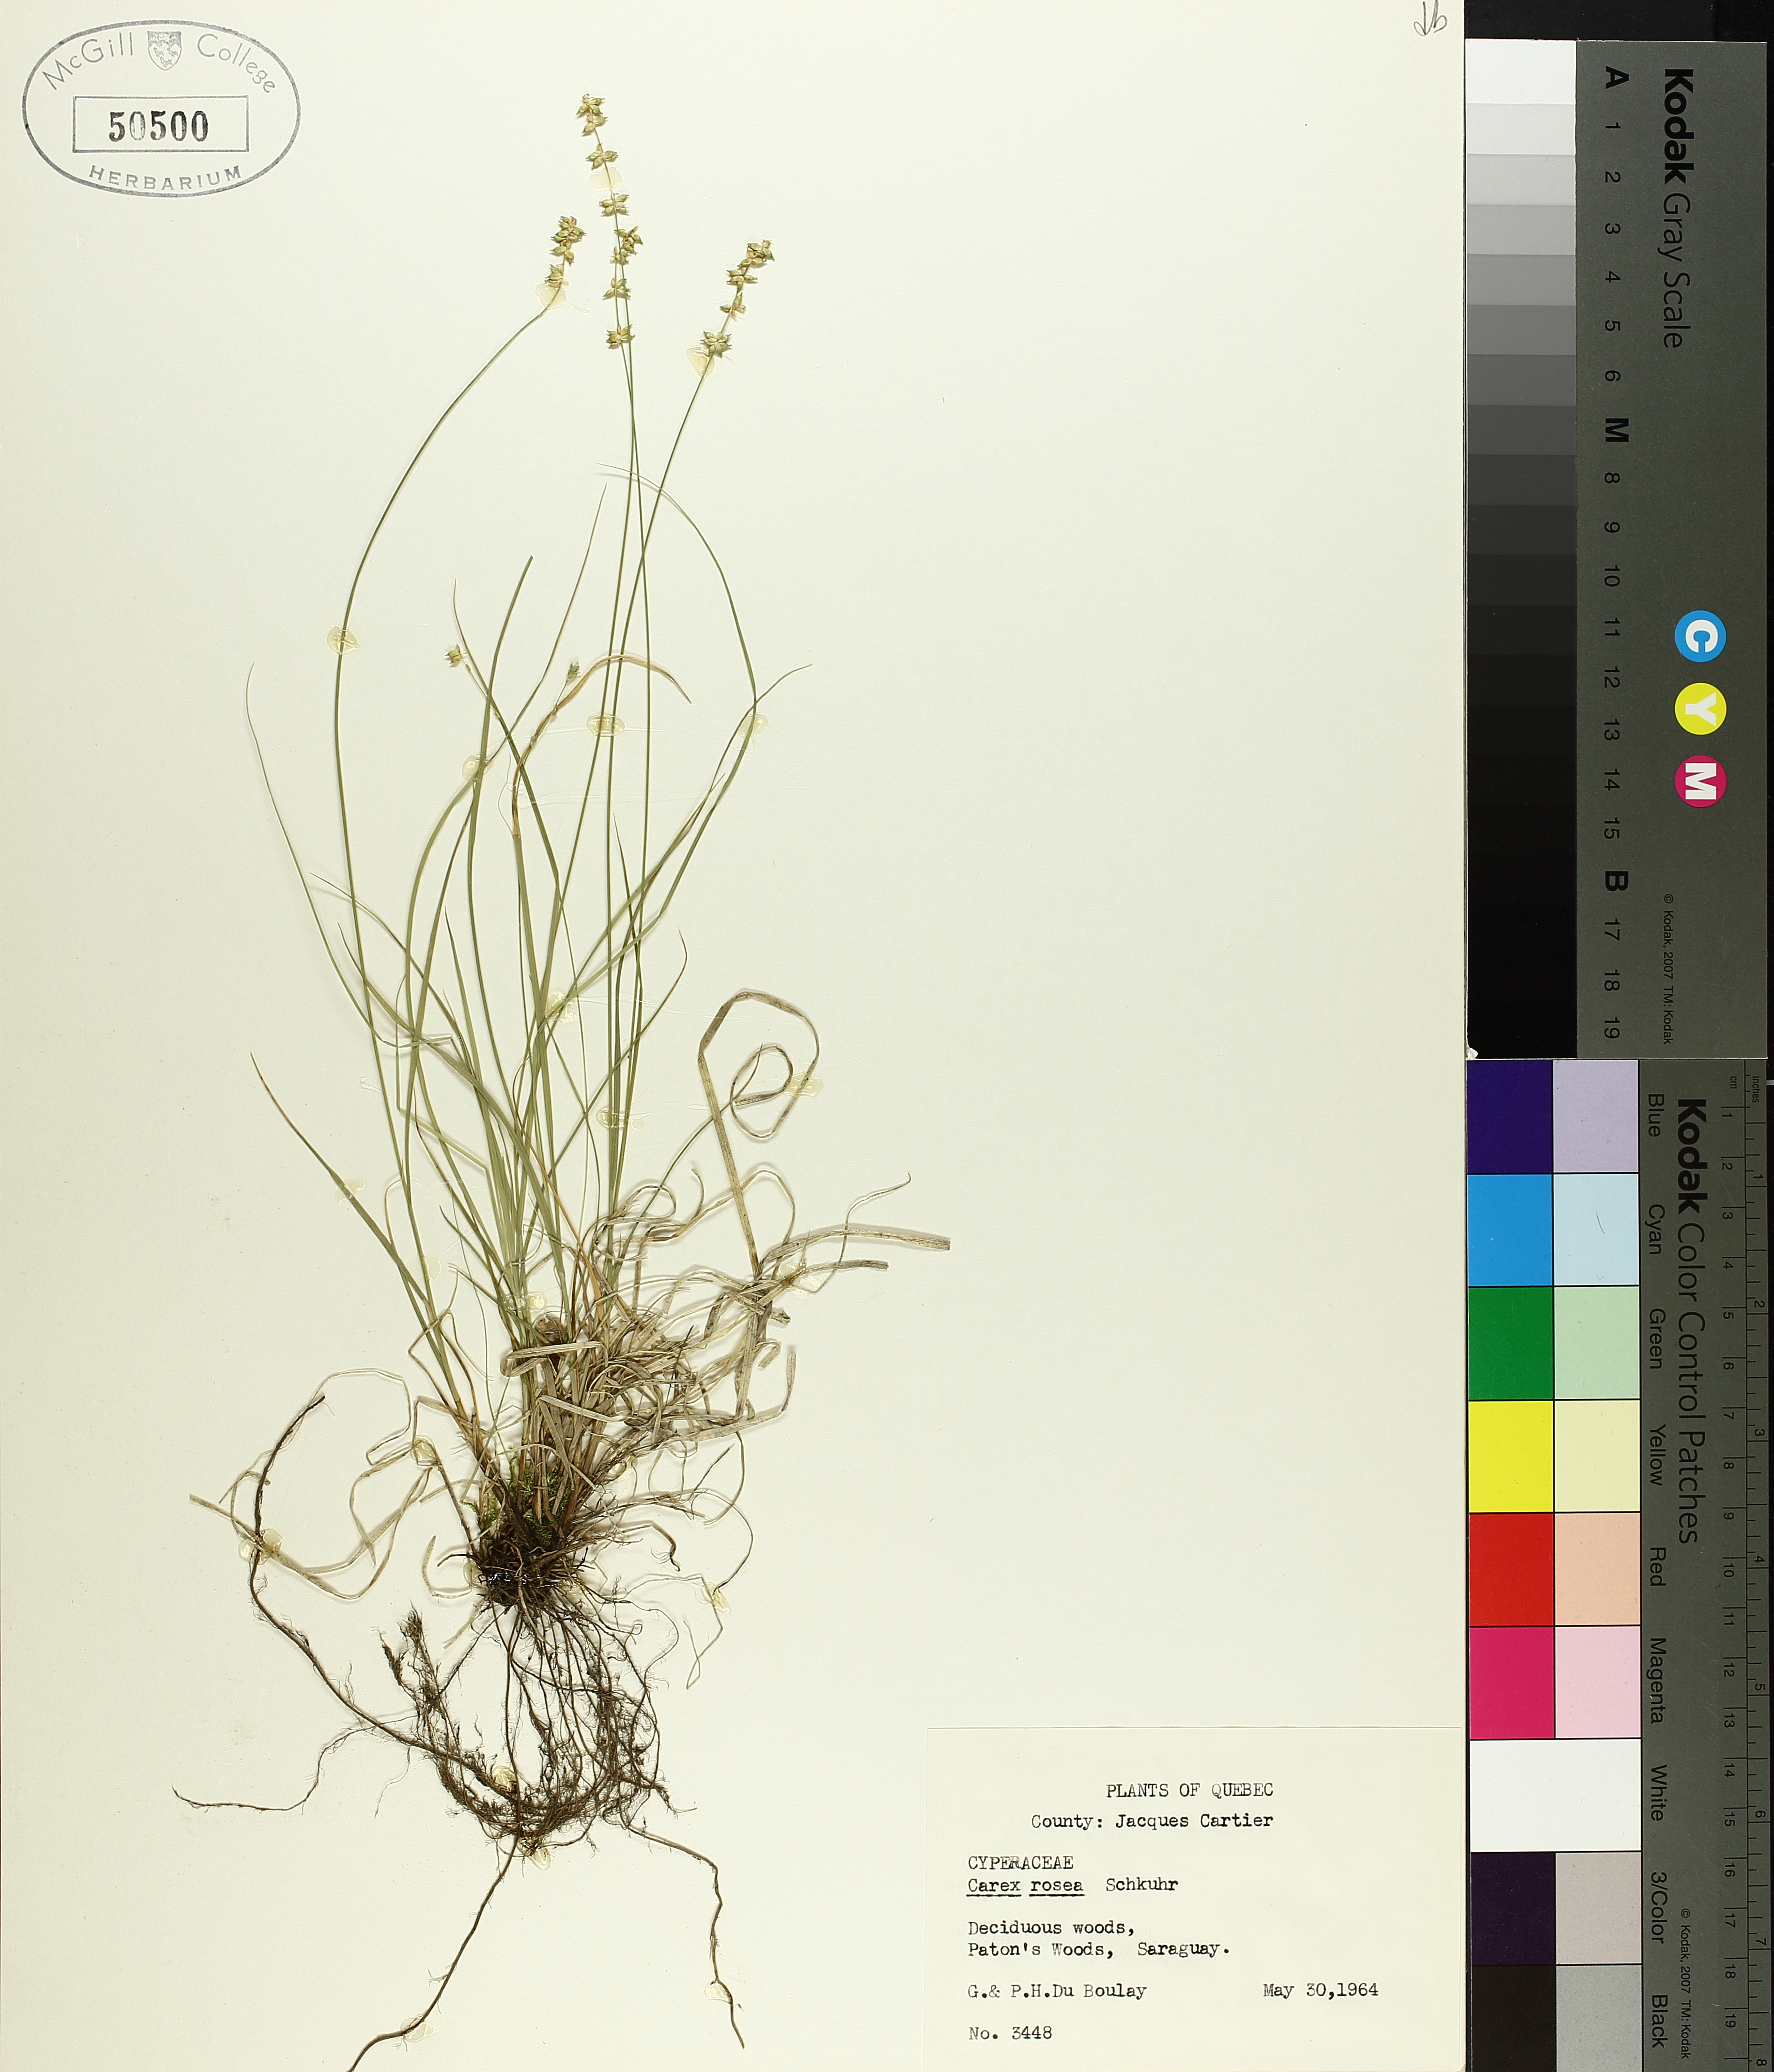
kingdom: Plantae
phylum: Tracheophyta
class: Liliopsida
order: Poales
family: Cyperaceae
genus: Carex
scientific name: Carex rosea
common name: Curly-styled wood sedge
